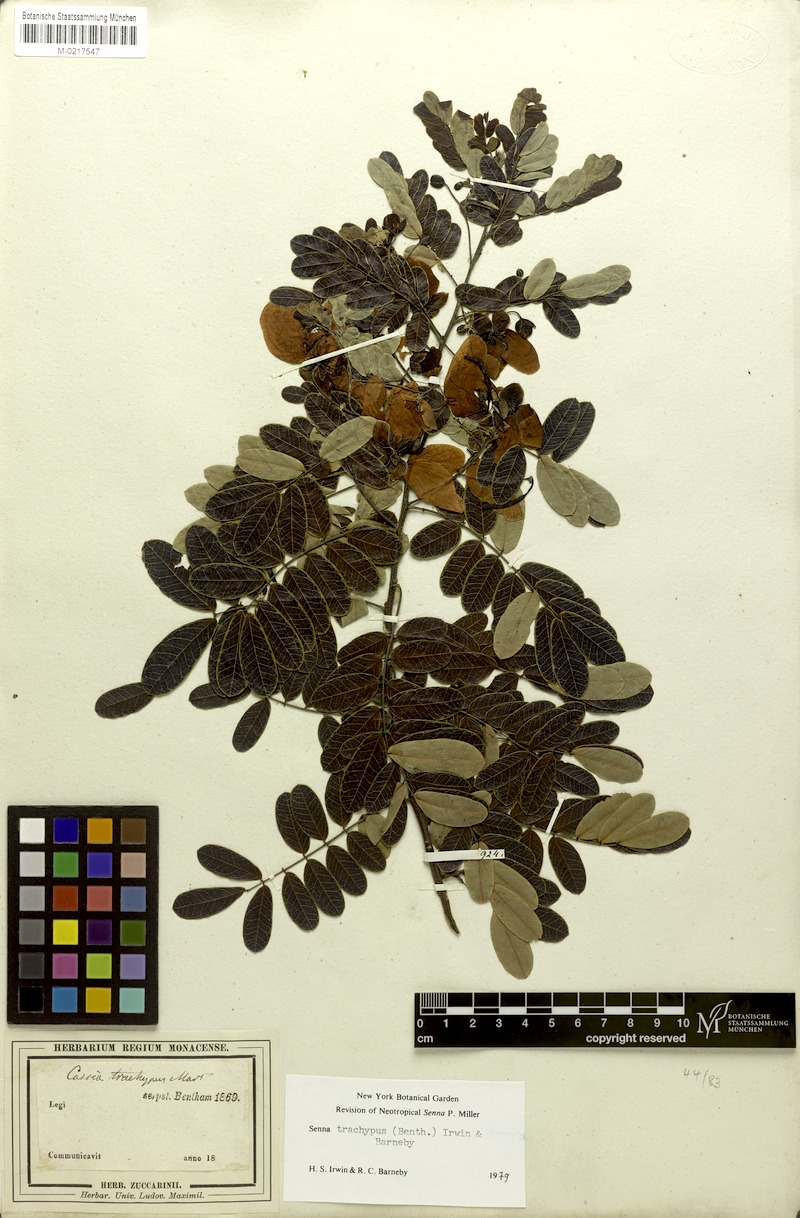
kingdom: Plantae
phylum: Tracheophyta
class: Magnoliopsida
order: Fabales
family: Fabaceae
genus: Senna
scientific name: Senna acuruensis
